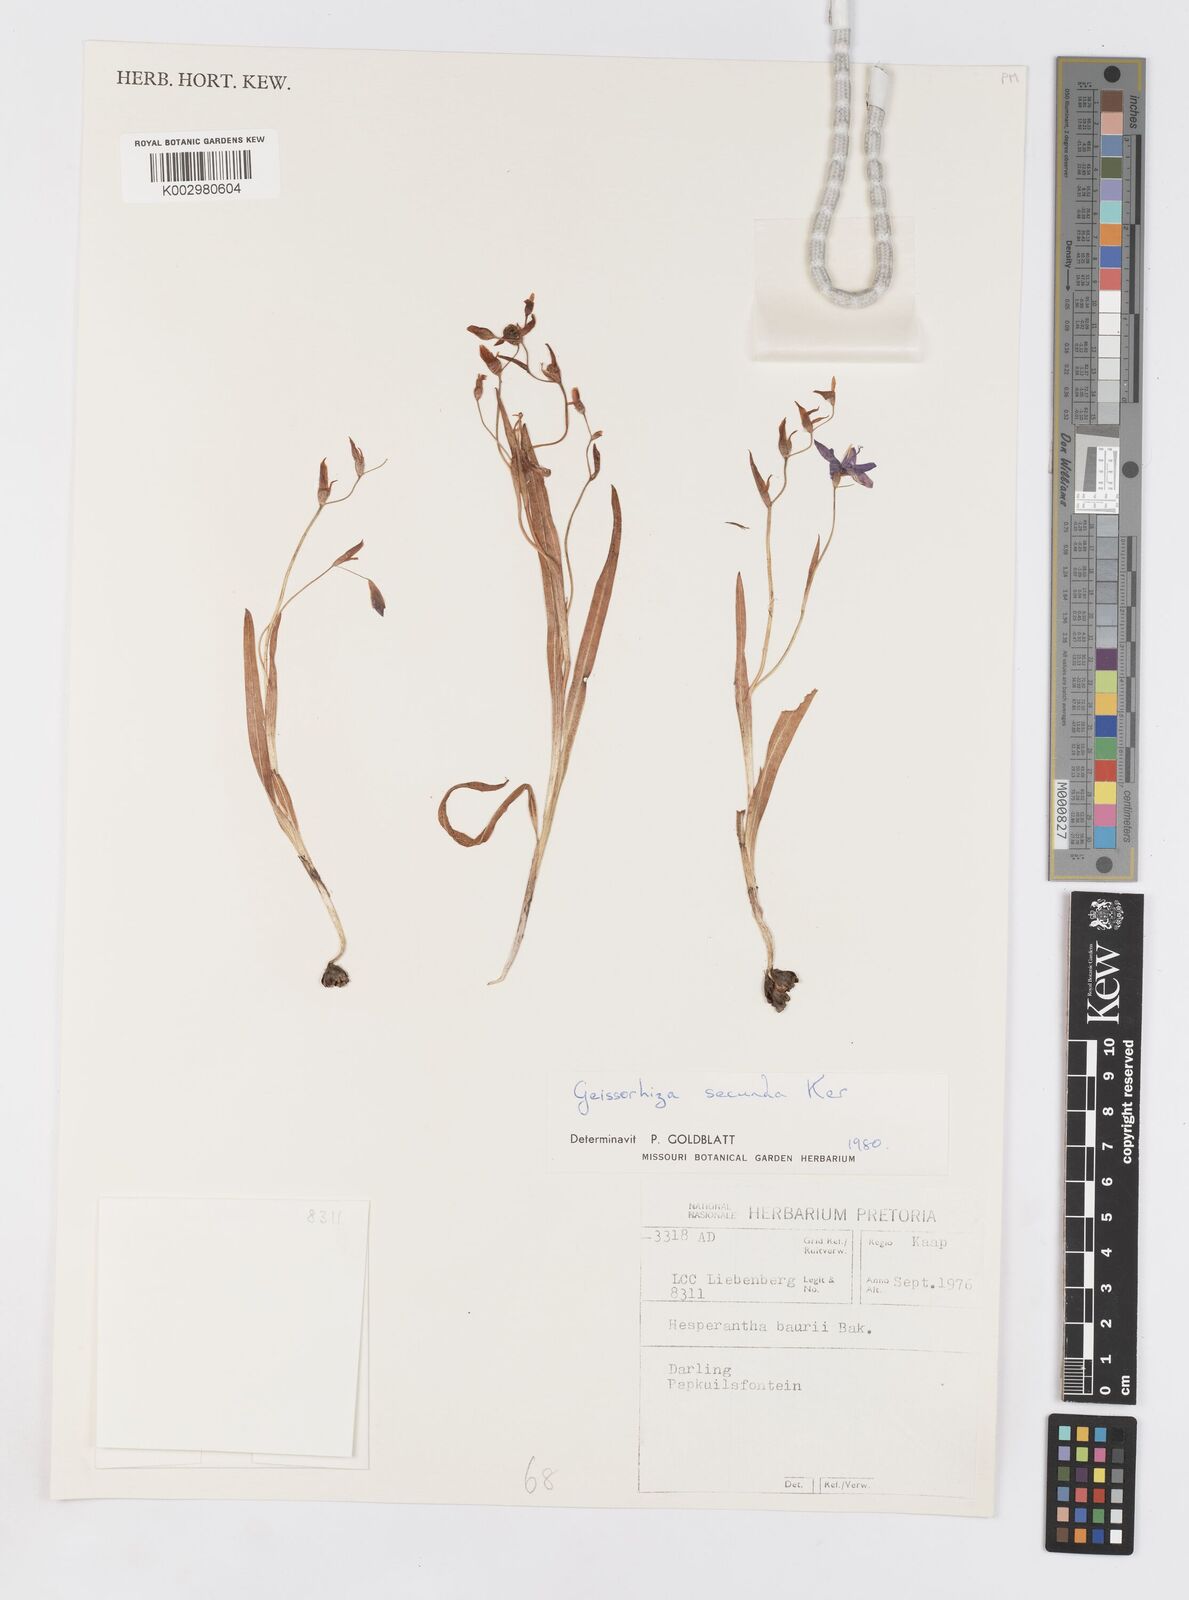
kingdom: Plantae
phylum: Tracheophyta
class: Liliopsida
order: Asparagales
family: Iridaceae
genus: Geissorhiza
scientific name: Geissorhiza aspera
